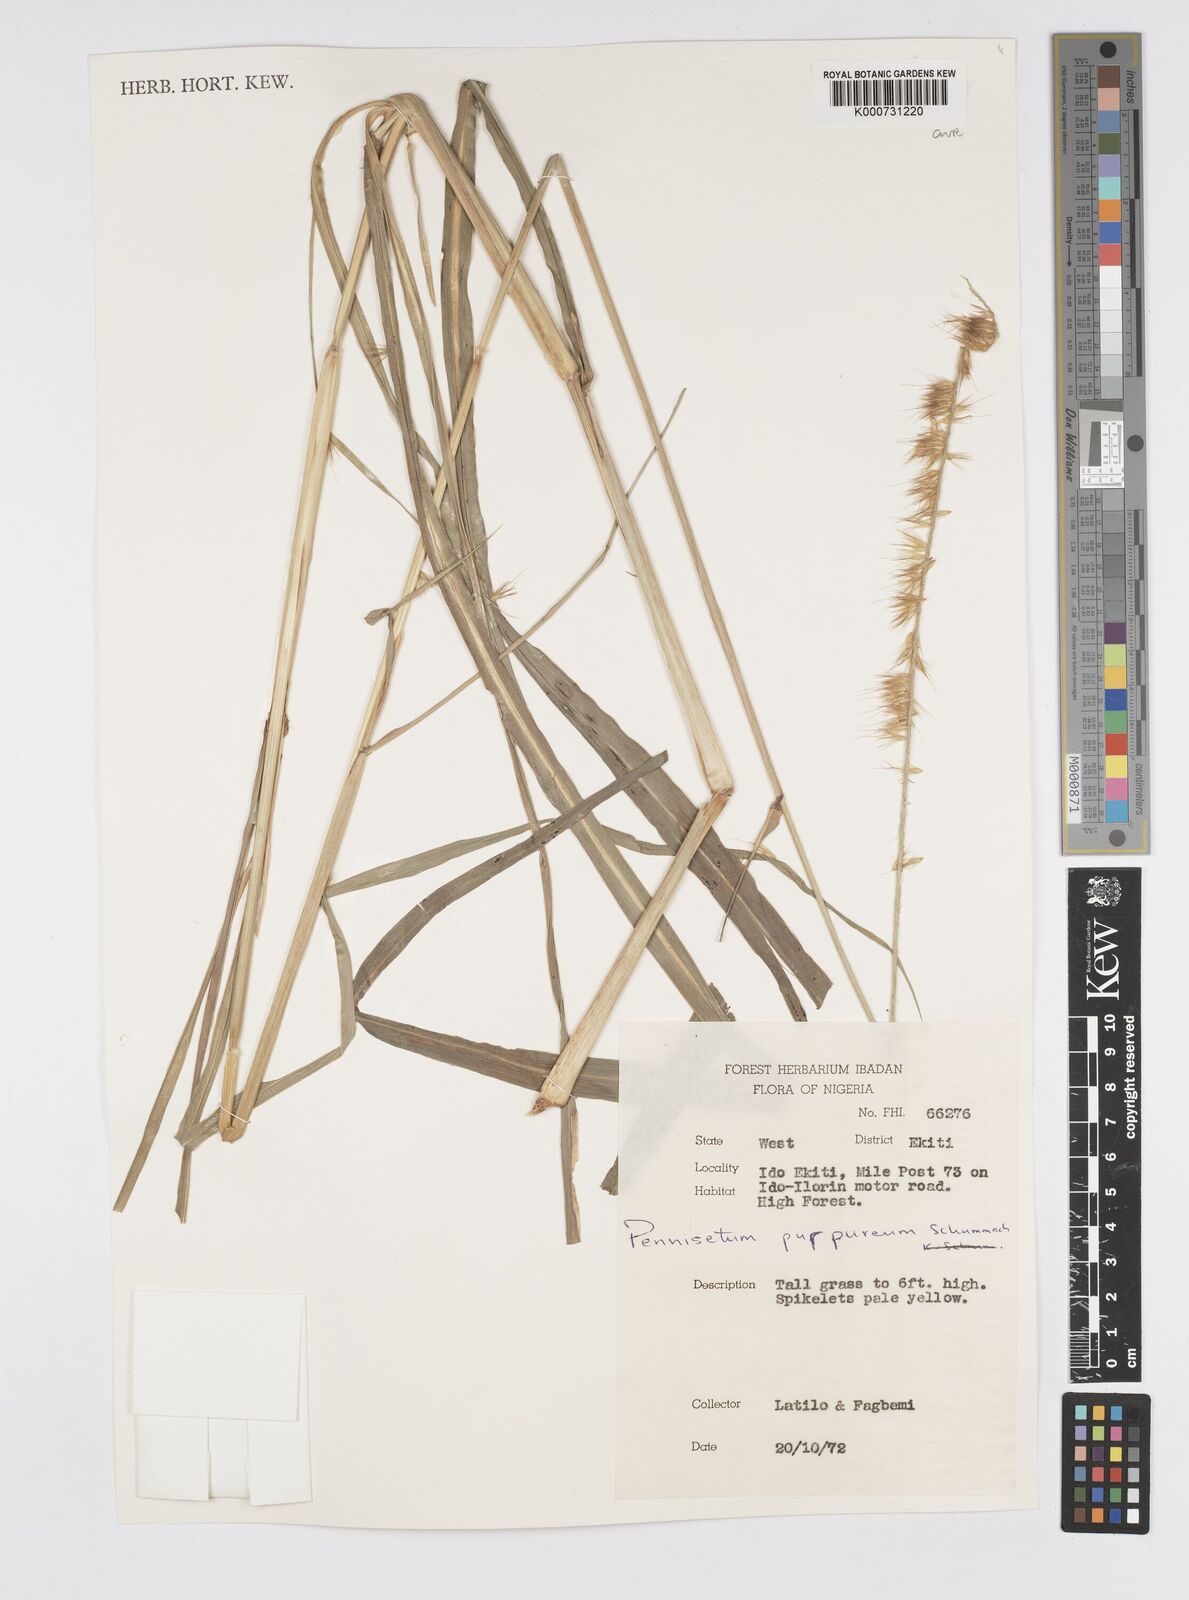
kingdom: Plantae
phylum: Tracheophyta
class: Liliopsida
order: Poales
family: Poaceae
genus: Cenchrus
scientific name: Cenchrus purpureus
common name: Elephant grass
